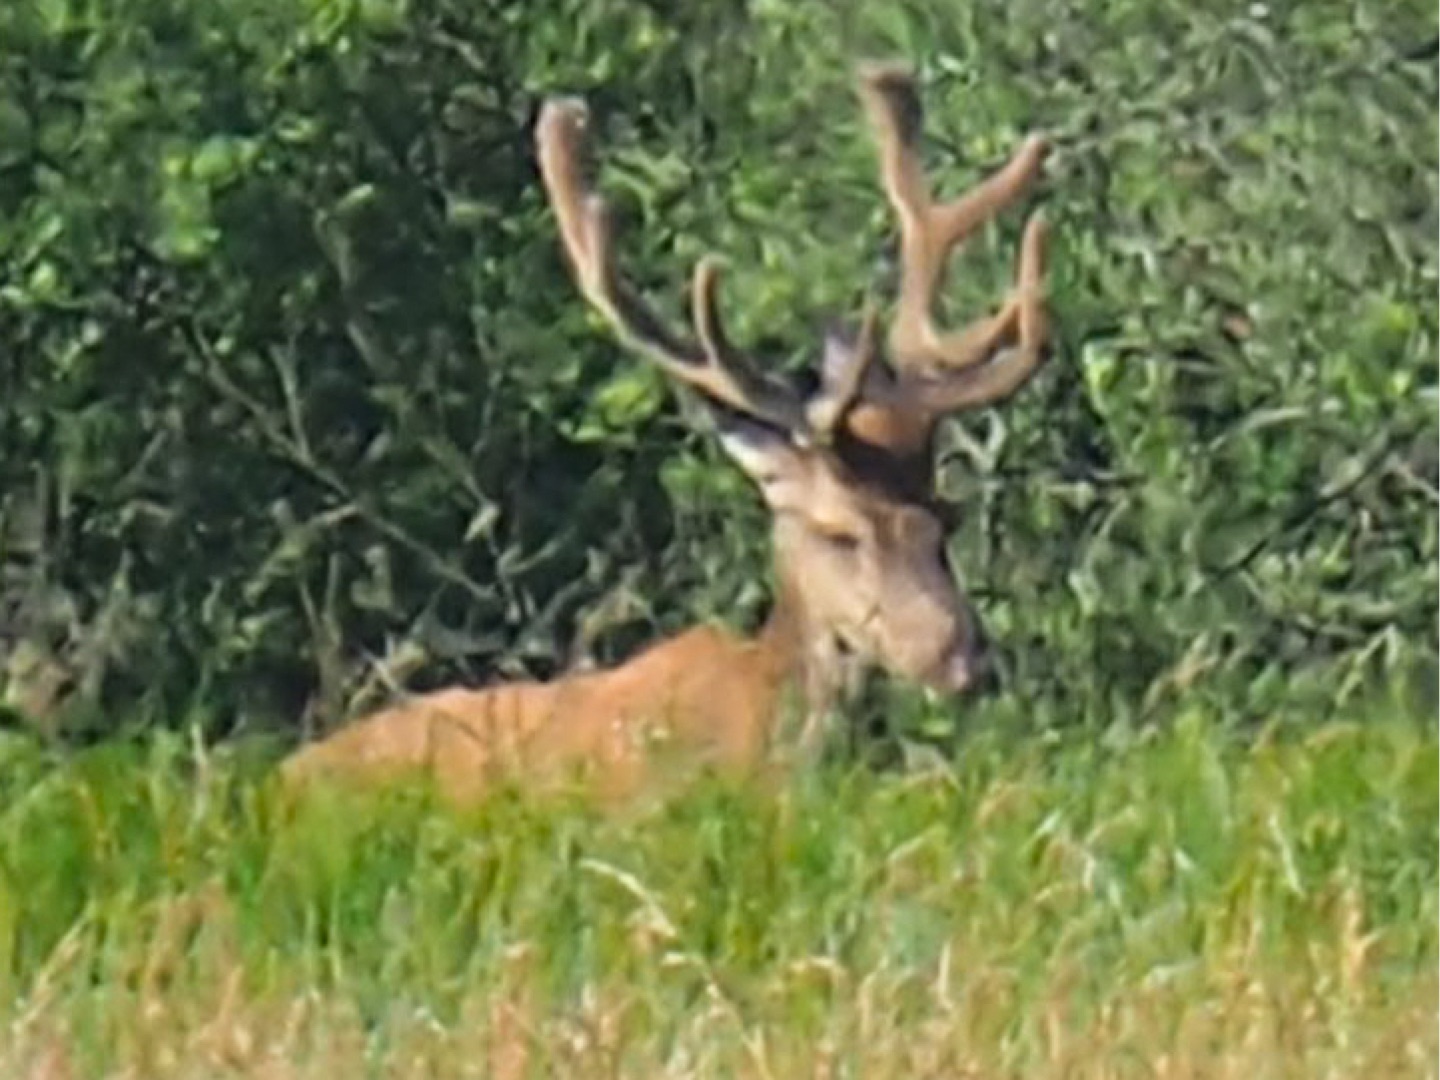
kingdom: Animalia
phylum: Chordata
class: Mammalia
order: Artiodactyla
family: Cervidae
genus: Cervus
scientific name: Cervus elaphus
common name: Krondyr
